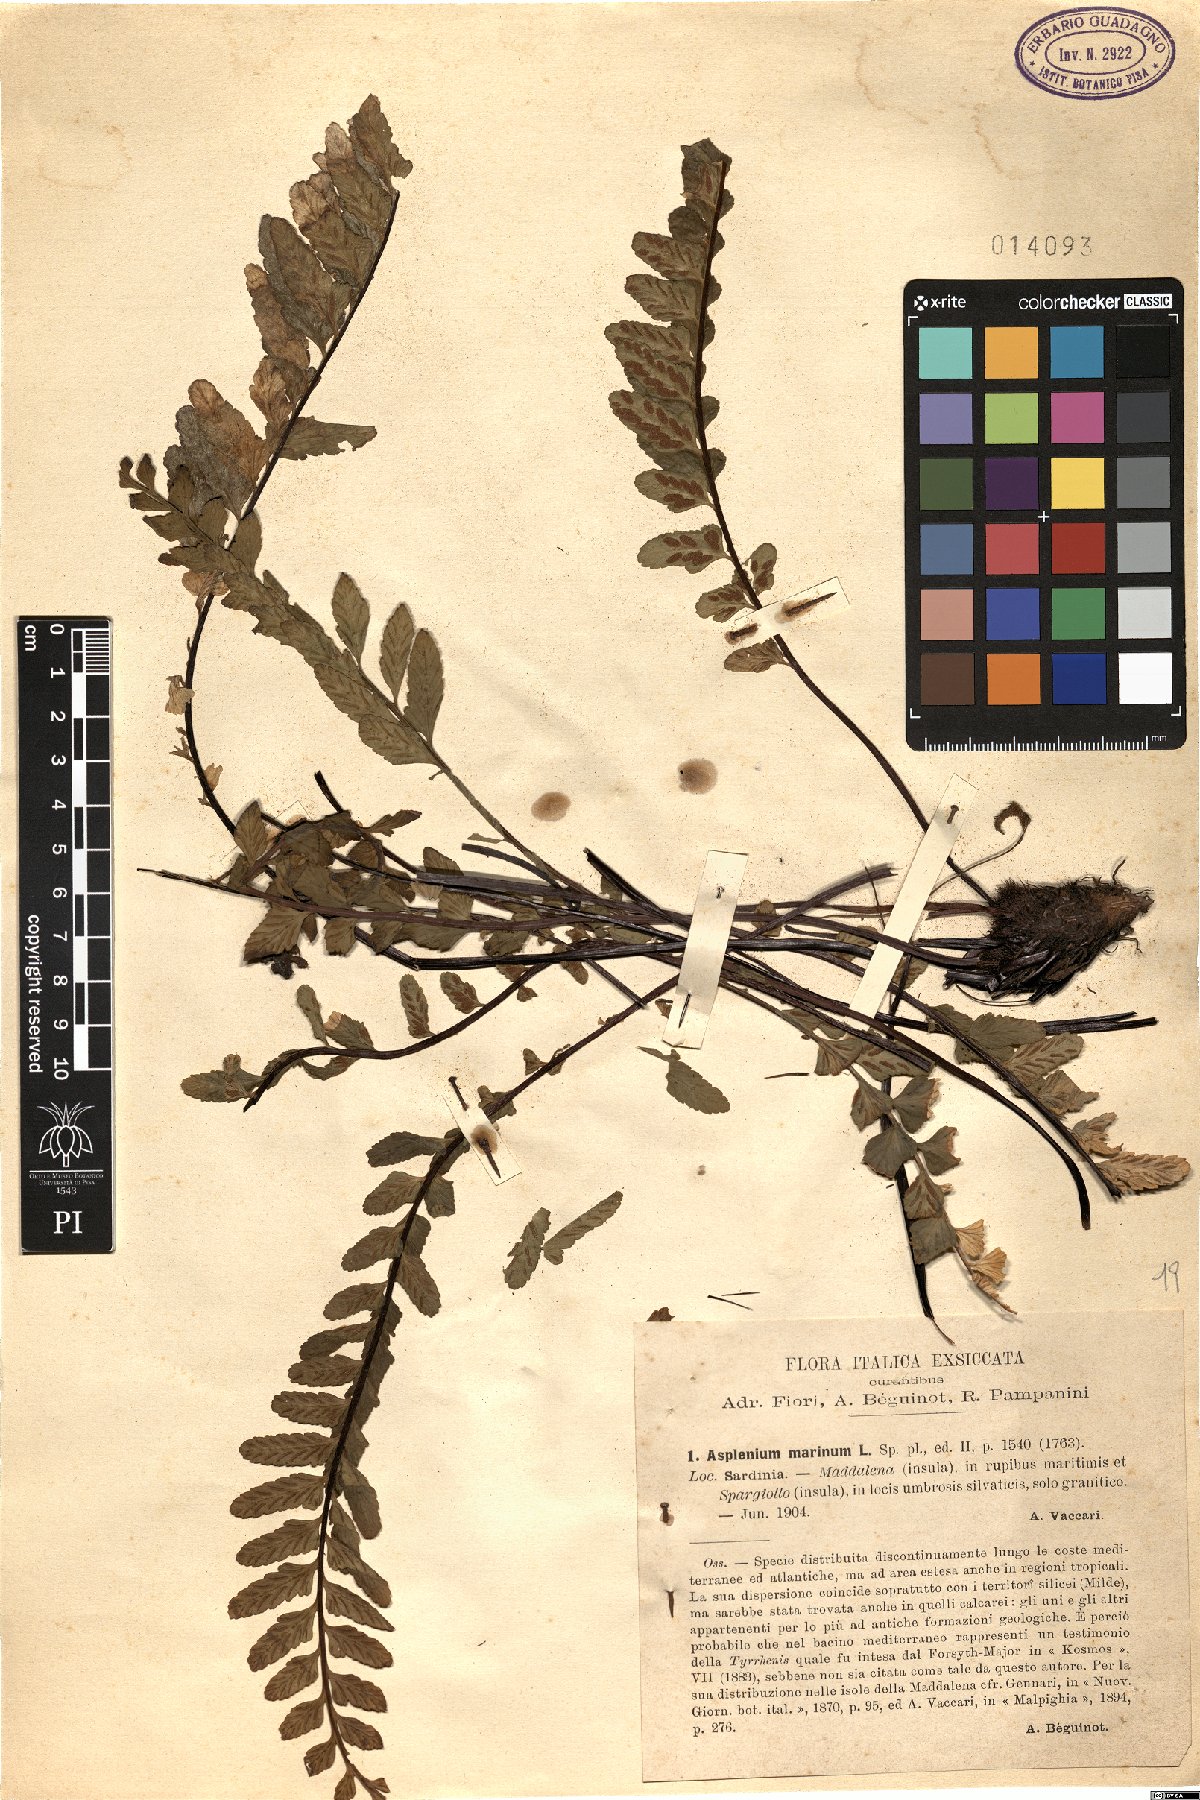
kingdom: Plantae
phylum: Tracheophyta
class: Polypodiopsida
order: Polypodiales
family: Aspleniaceae
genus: Asplenium
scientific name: Asplenium marinum
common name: Sea spleenwort
